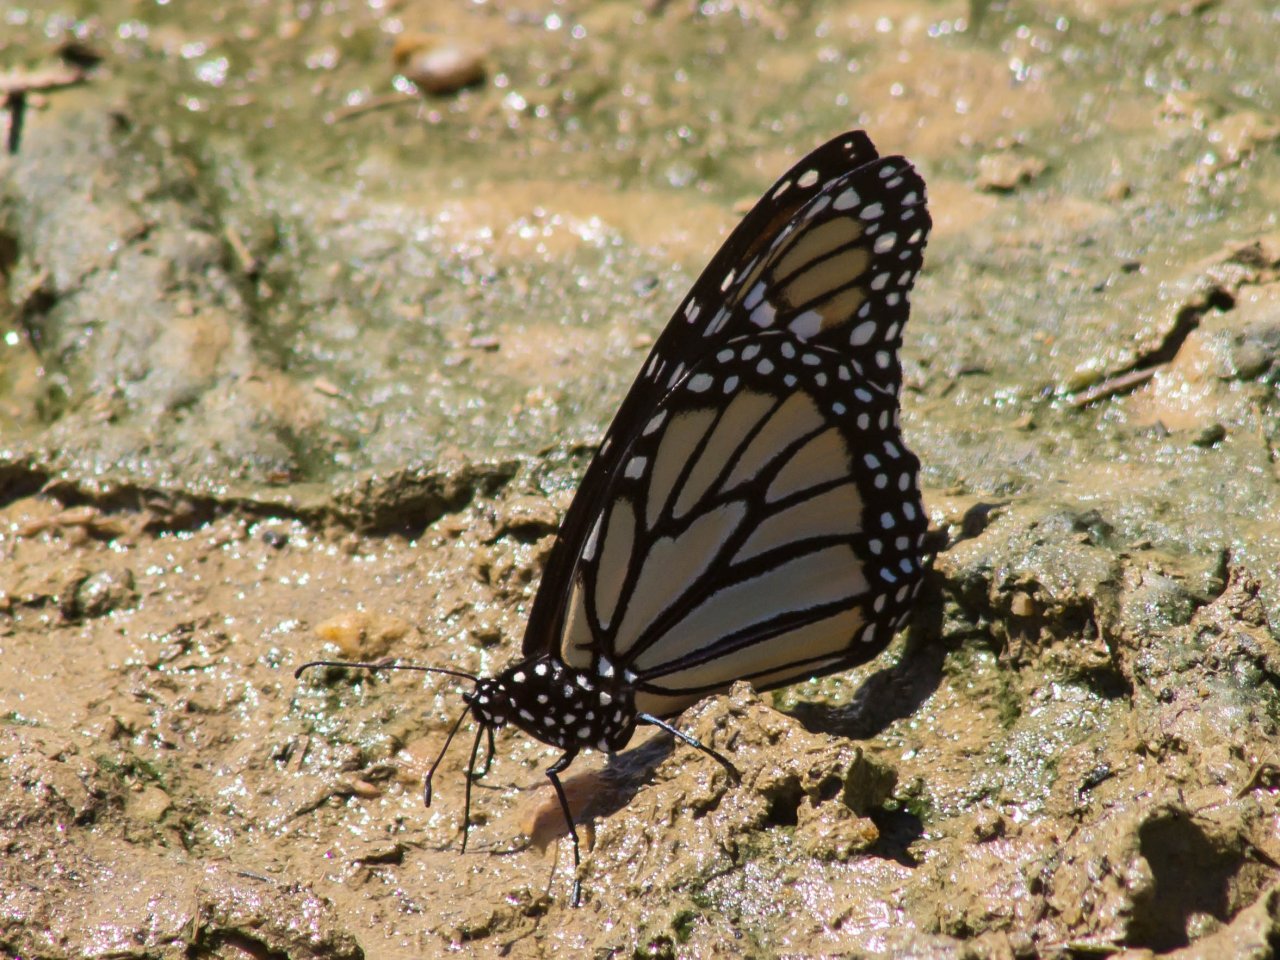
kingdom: Animalia
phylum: Arthropoda
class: Insecta
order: Lepidoptera
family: Nymphalidae
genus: Danaus
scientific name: Danaus plexippus
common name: Monarch
